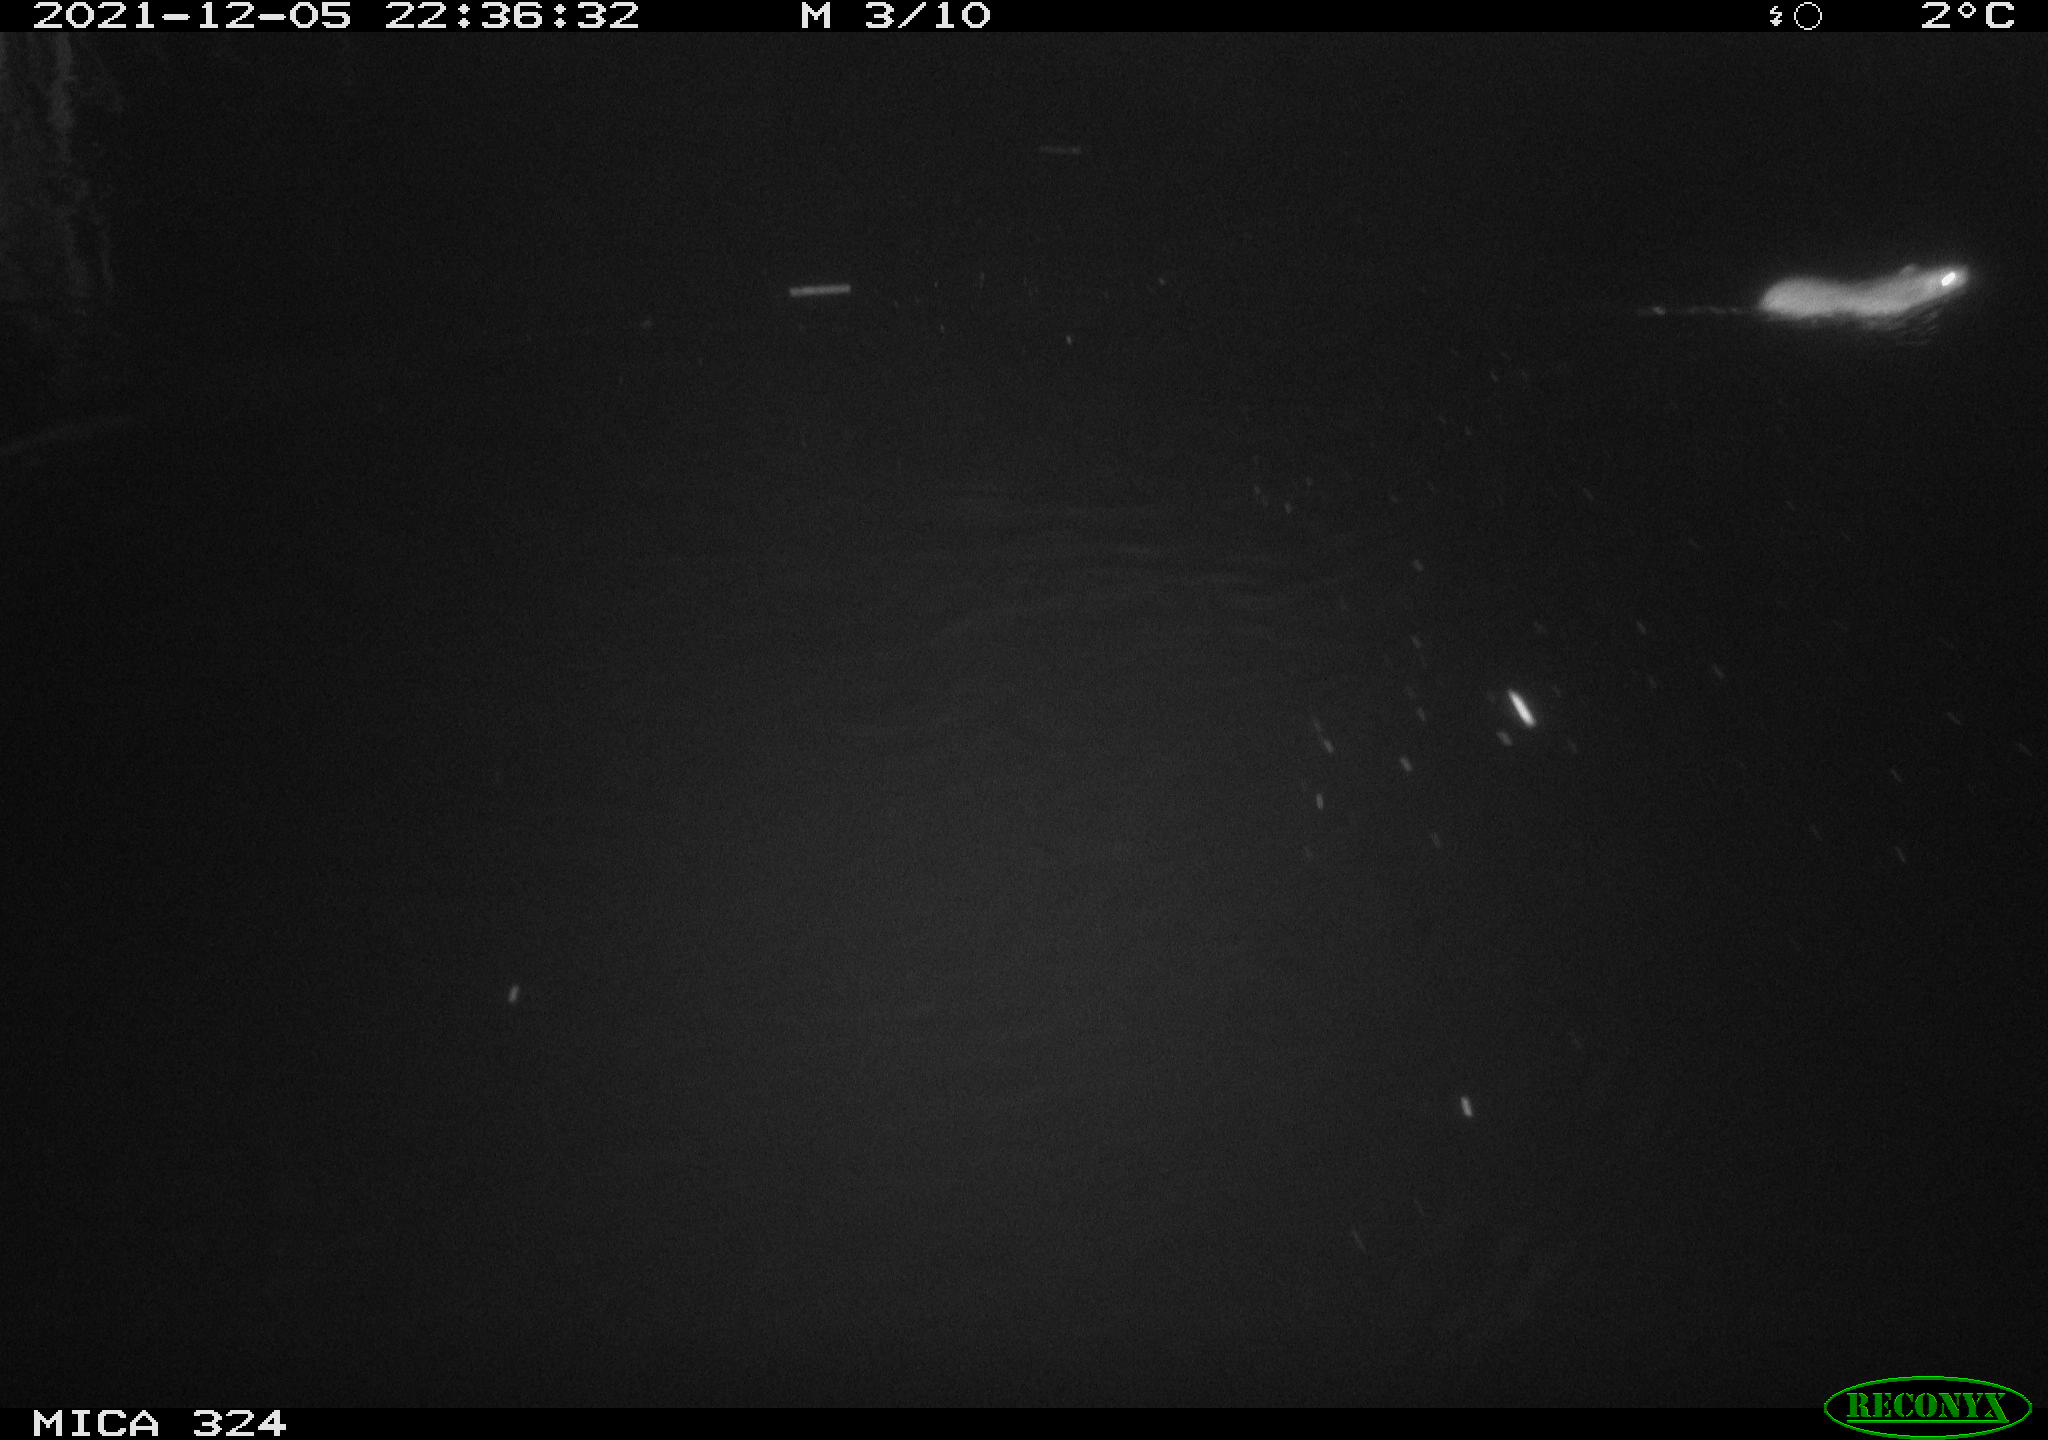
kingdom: Animalia
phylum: Chordata
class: Mammalia
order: Rodentia
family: Muridae
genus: Rattus
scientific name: Rattus norvegicus
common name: Brown rat
